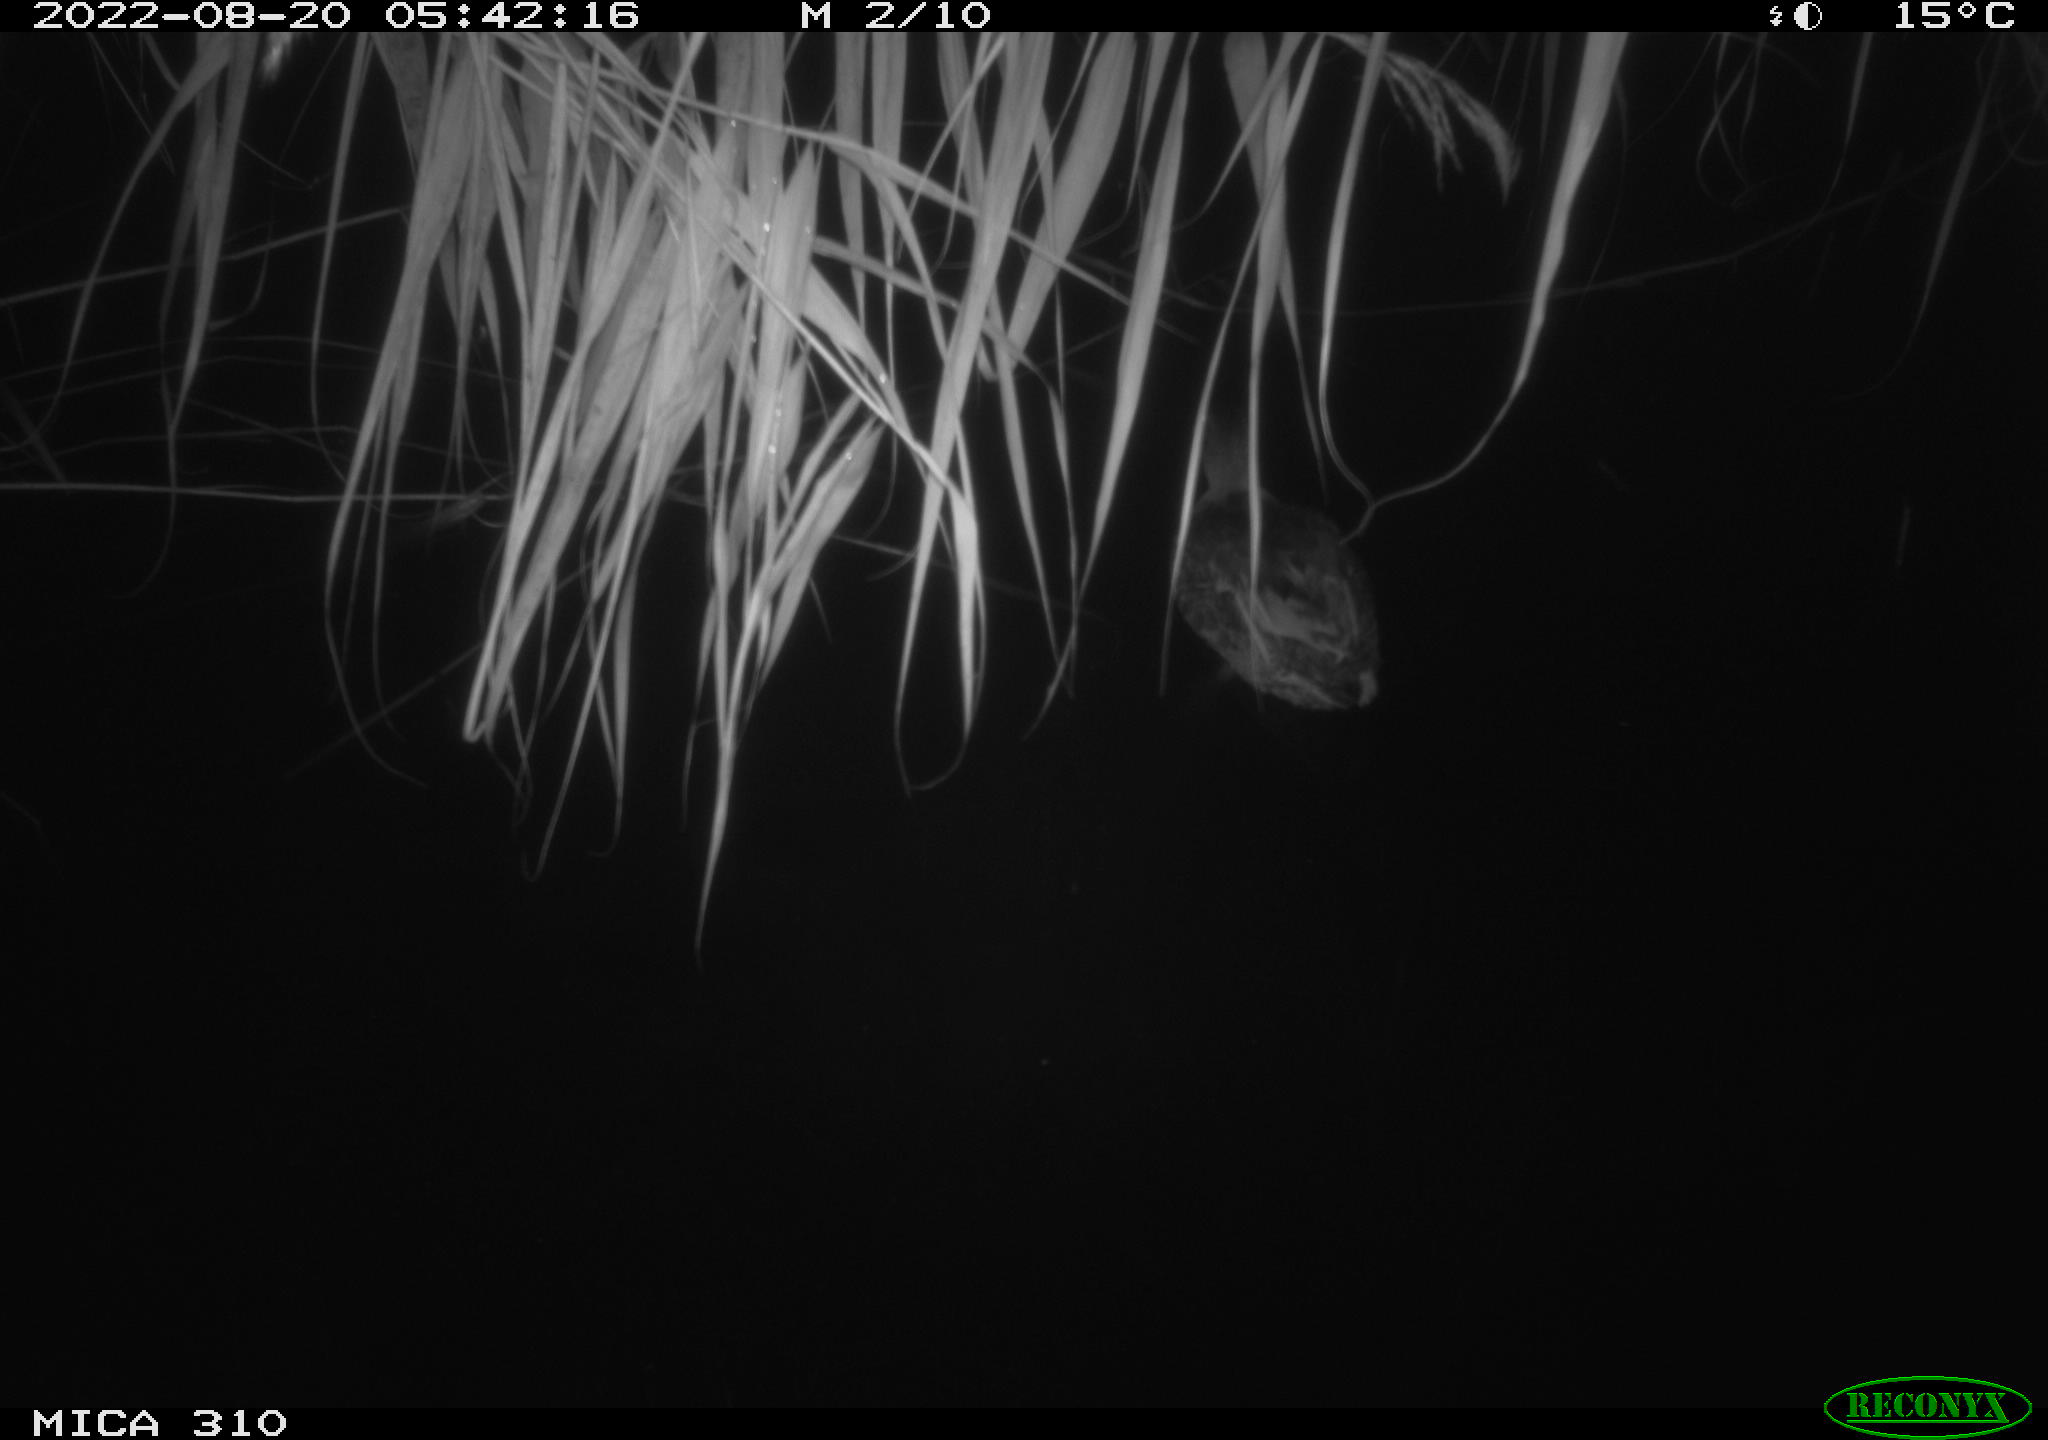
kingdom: Animalia
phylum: Chordata
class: Aves
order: Anseriformes
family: Anatidae
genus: Anas
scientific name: Anas platyrhynchos
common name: Mallard
